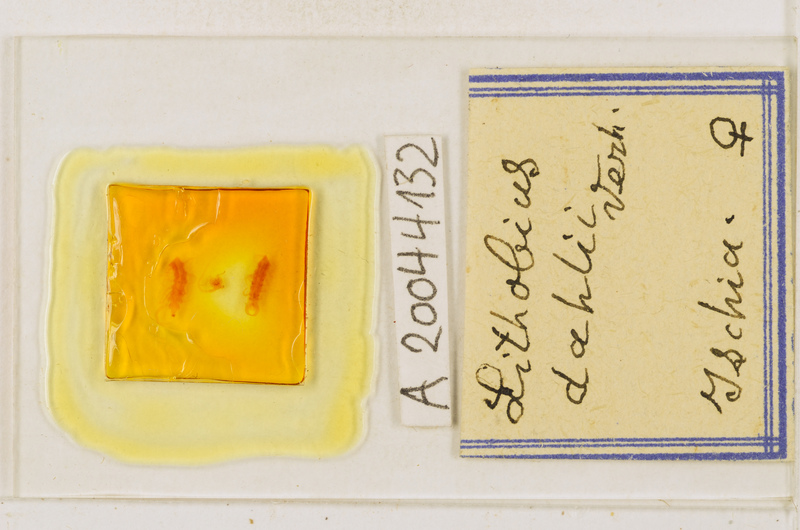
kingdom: Animalia
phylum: Arthropoda
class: Chilopoda
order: Lithobiomorpha
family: Lithobiidae
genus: Lithobius
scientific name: Lithobius dahlii
